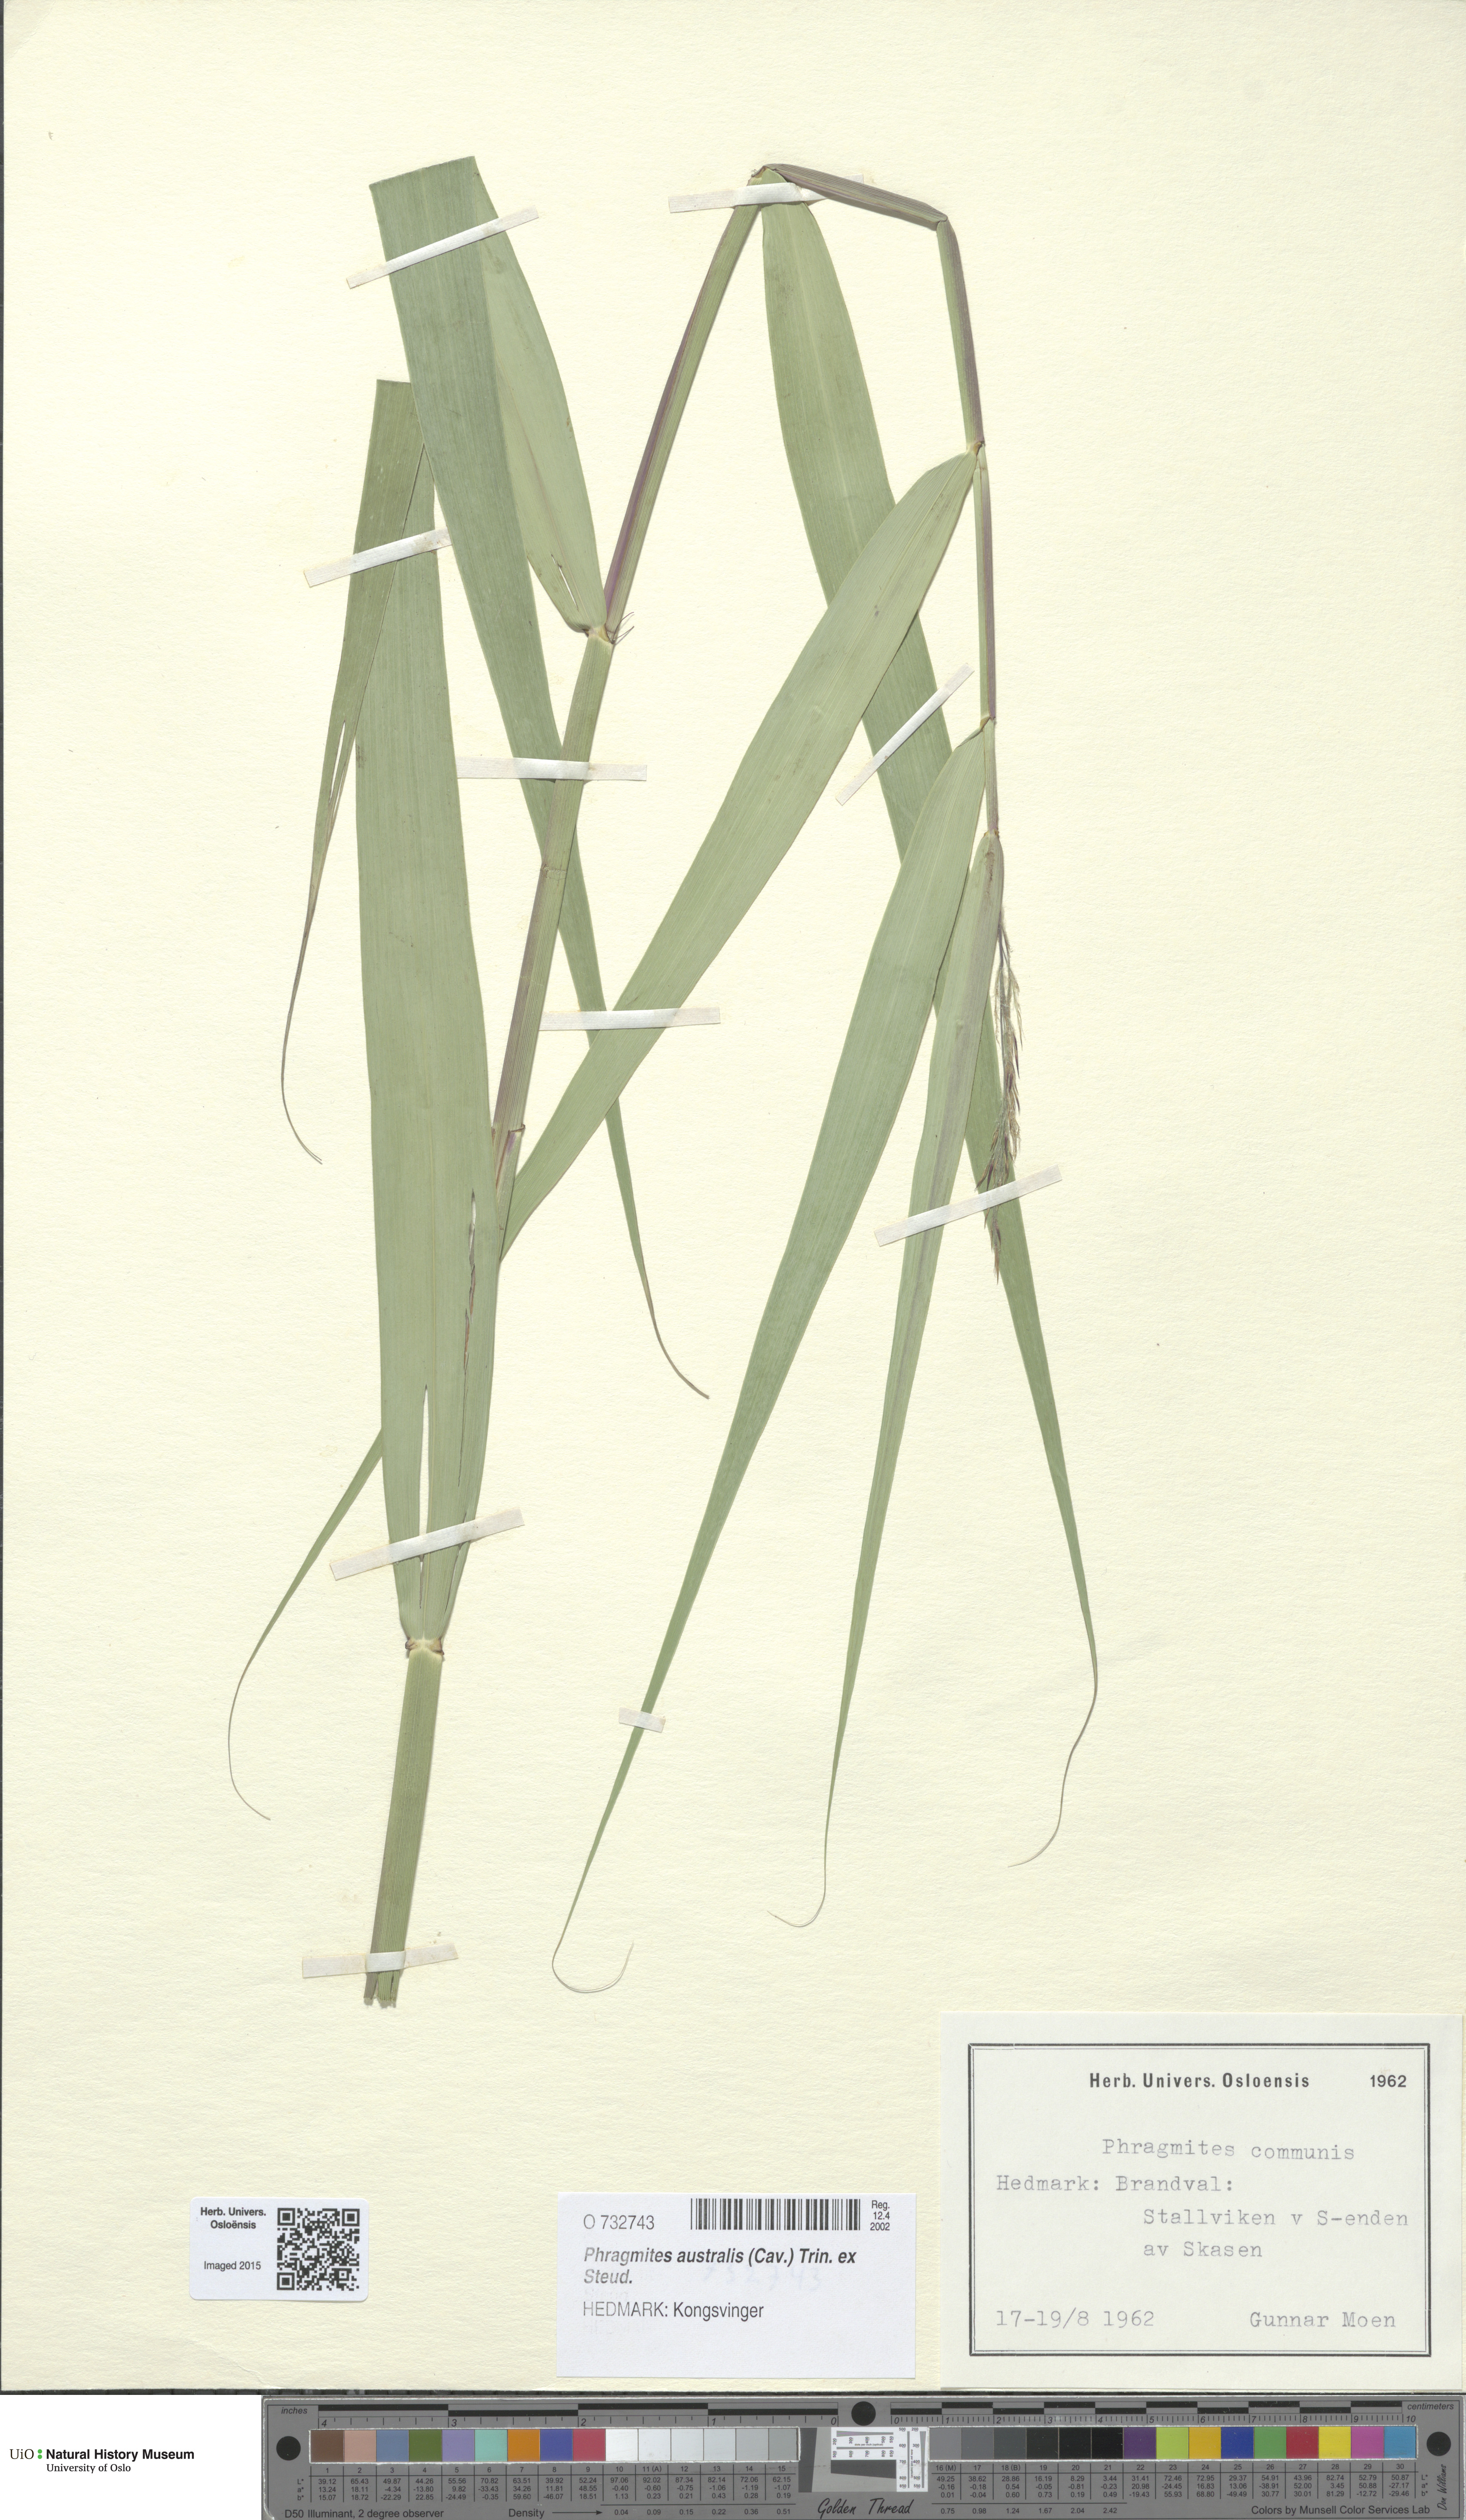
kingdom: Plantae
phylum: Tracheophyta
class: Liliopsida
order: Poales
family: Poaceae
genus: Phragmites
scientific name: Phragmites australis
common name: Common reed
